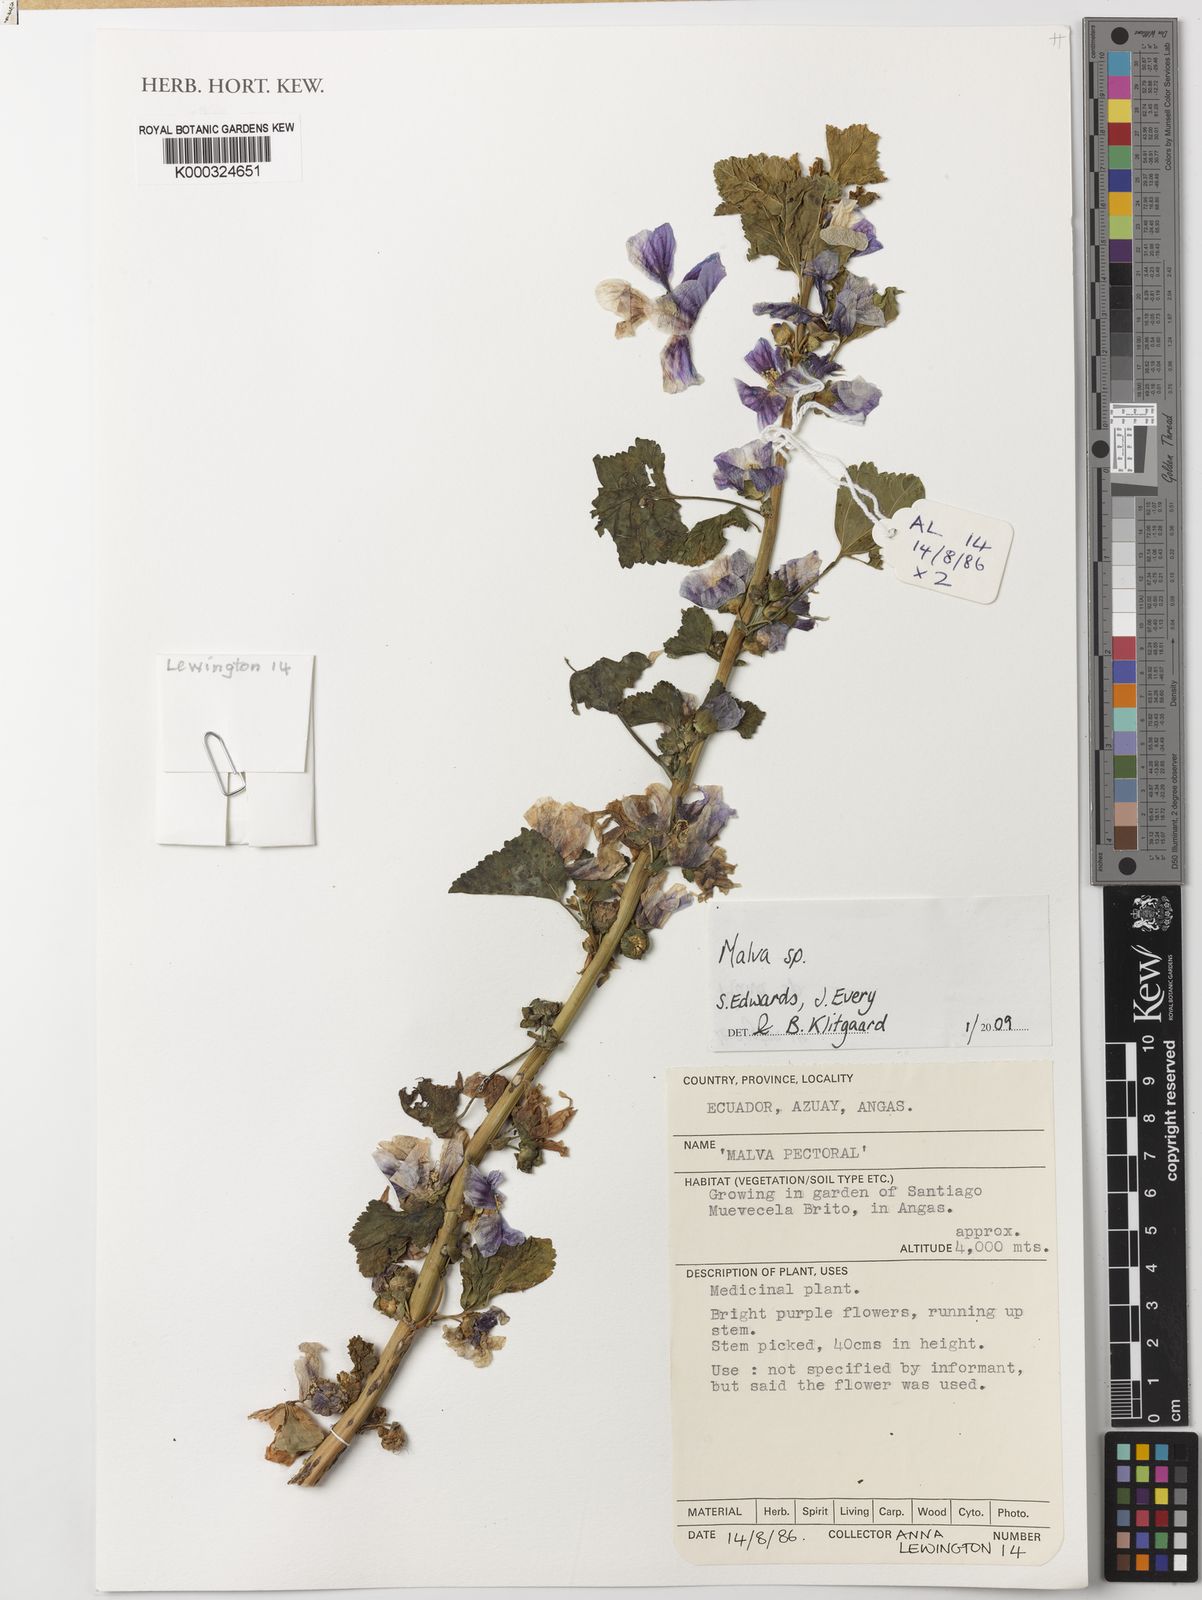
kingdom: Plantae
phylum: Tracheophyta
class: Magnoliopsida
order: Malvales
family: Malvaceae
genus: Malva
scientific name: Malva
